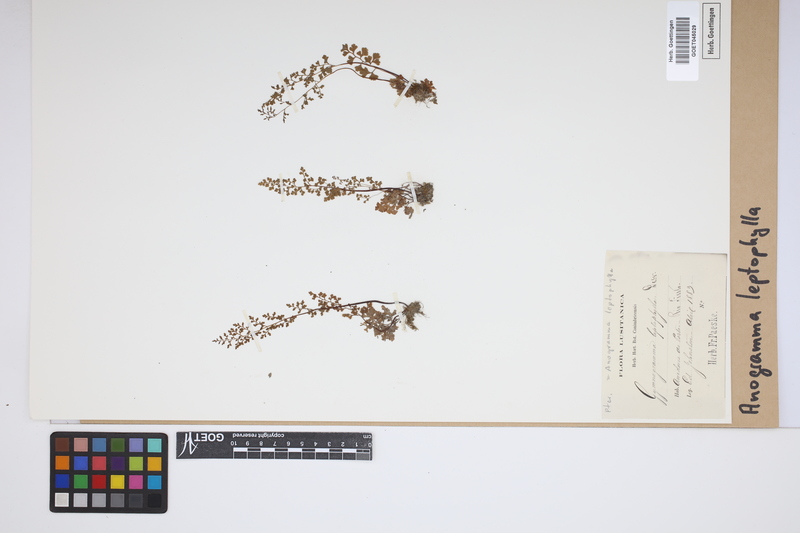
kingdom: Plantae
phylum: Tracheophyta
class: Polypodiopsida
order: Polypodiales
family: Pteridaceae
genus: Anogramma
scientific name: Anogramma leptophylla
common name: Jersey fern
